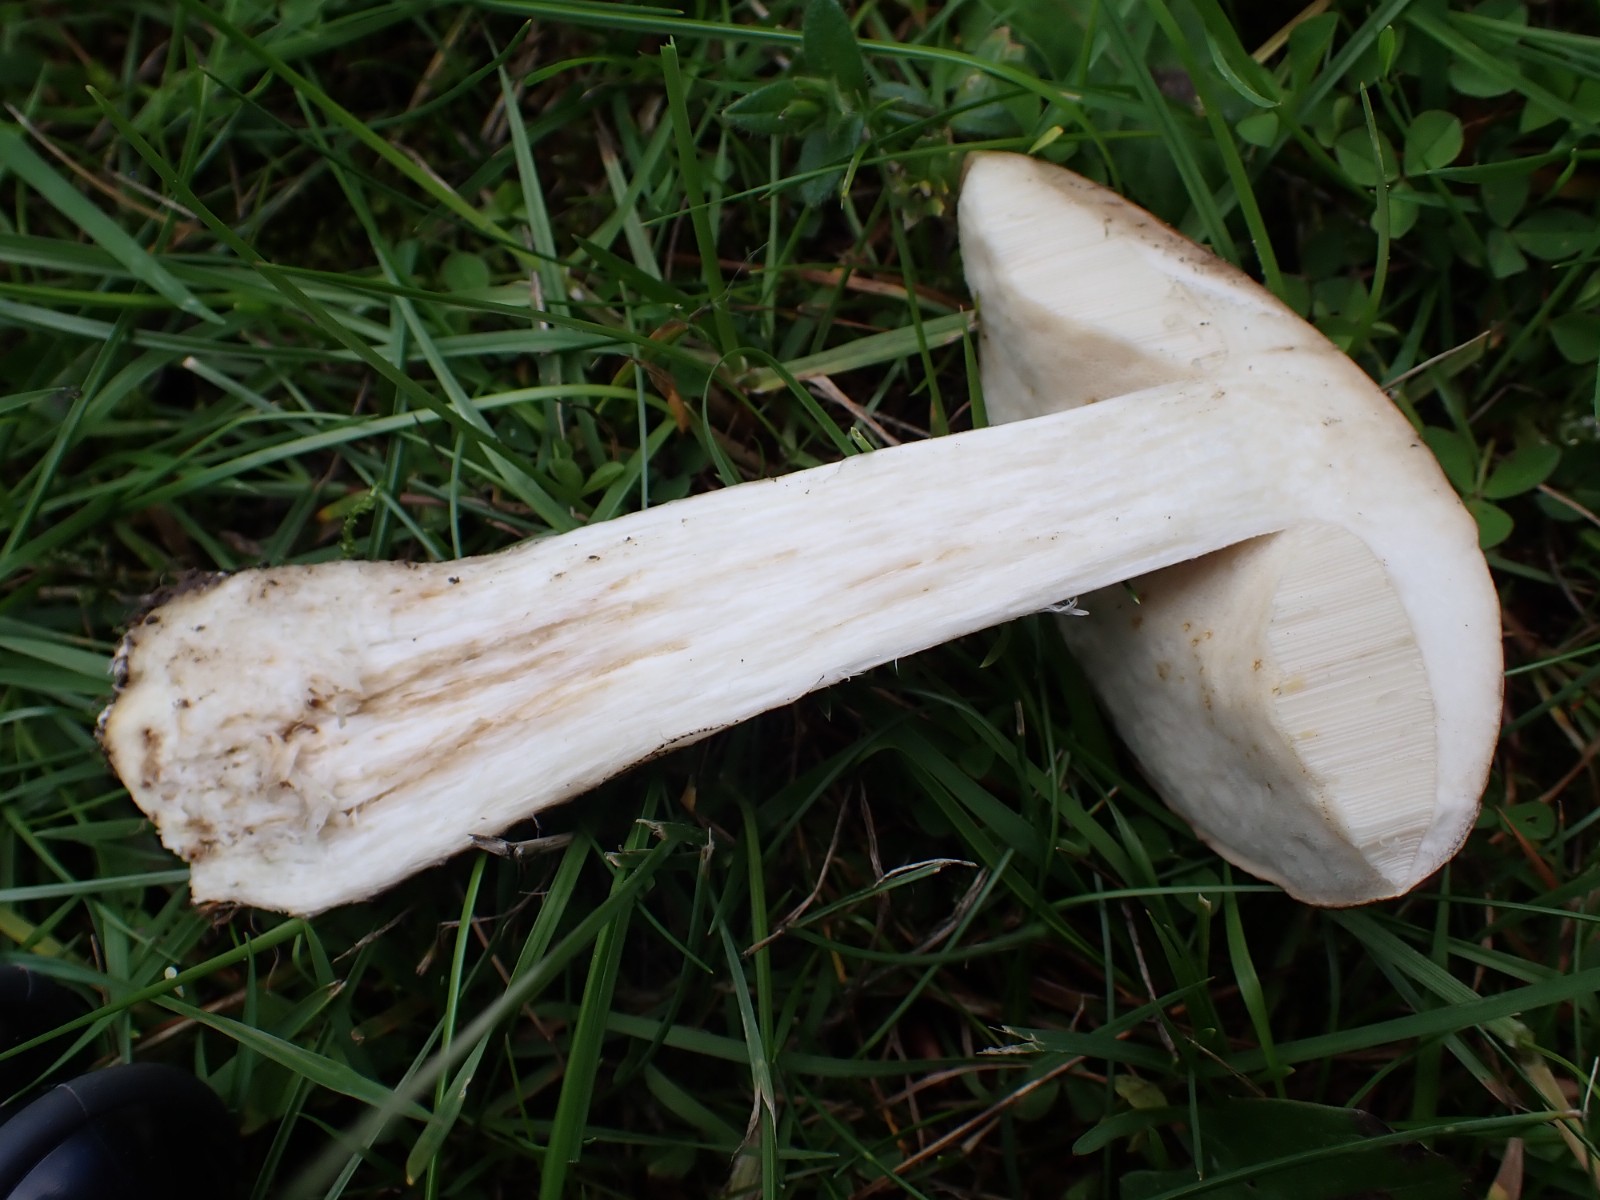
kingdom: Fungi
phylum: Basidiomycota
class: Agaricomycetes
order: Boletales
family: Boletaceae
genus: Leccinum
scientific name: Leccinum scabrum
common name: brun skælrørhat
